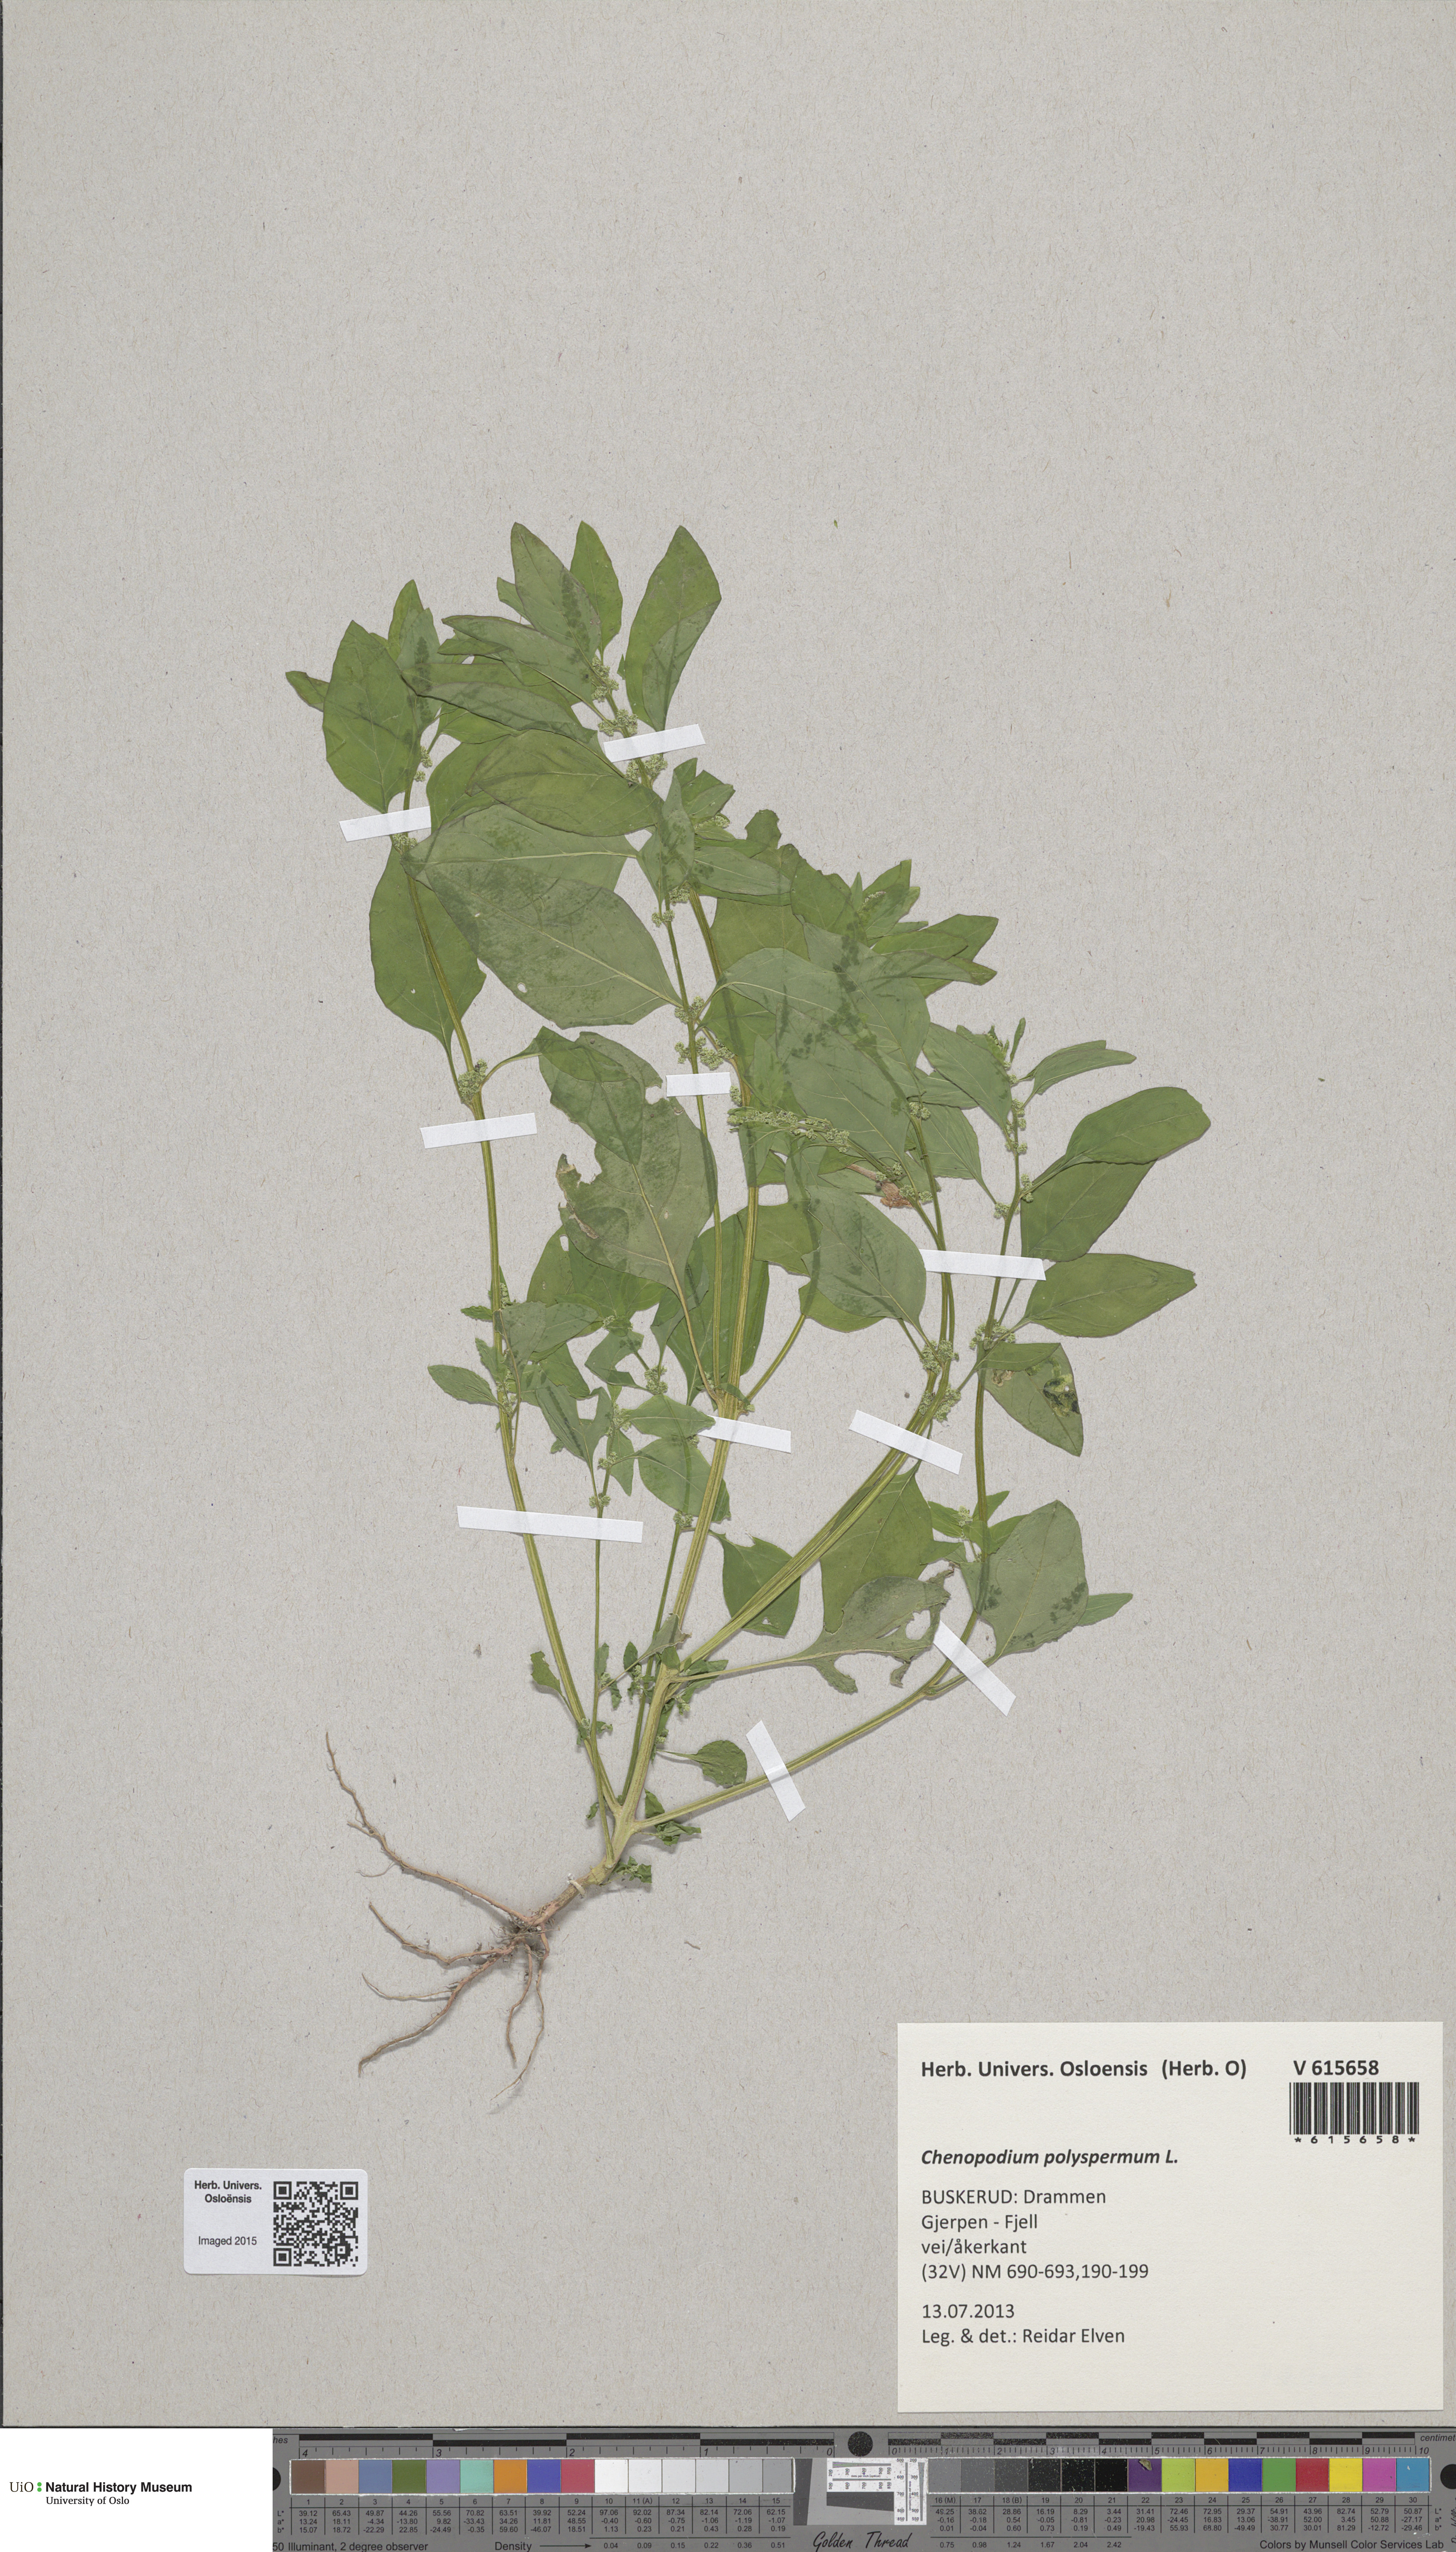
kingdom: Plantae
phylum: Tracheophyta
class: Magnoliopsida
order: Caryophyllales
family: Amaranthaceae
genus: Lipandra
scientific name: Lipandra polysperma
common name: Many-seed goosefoot
